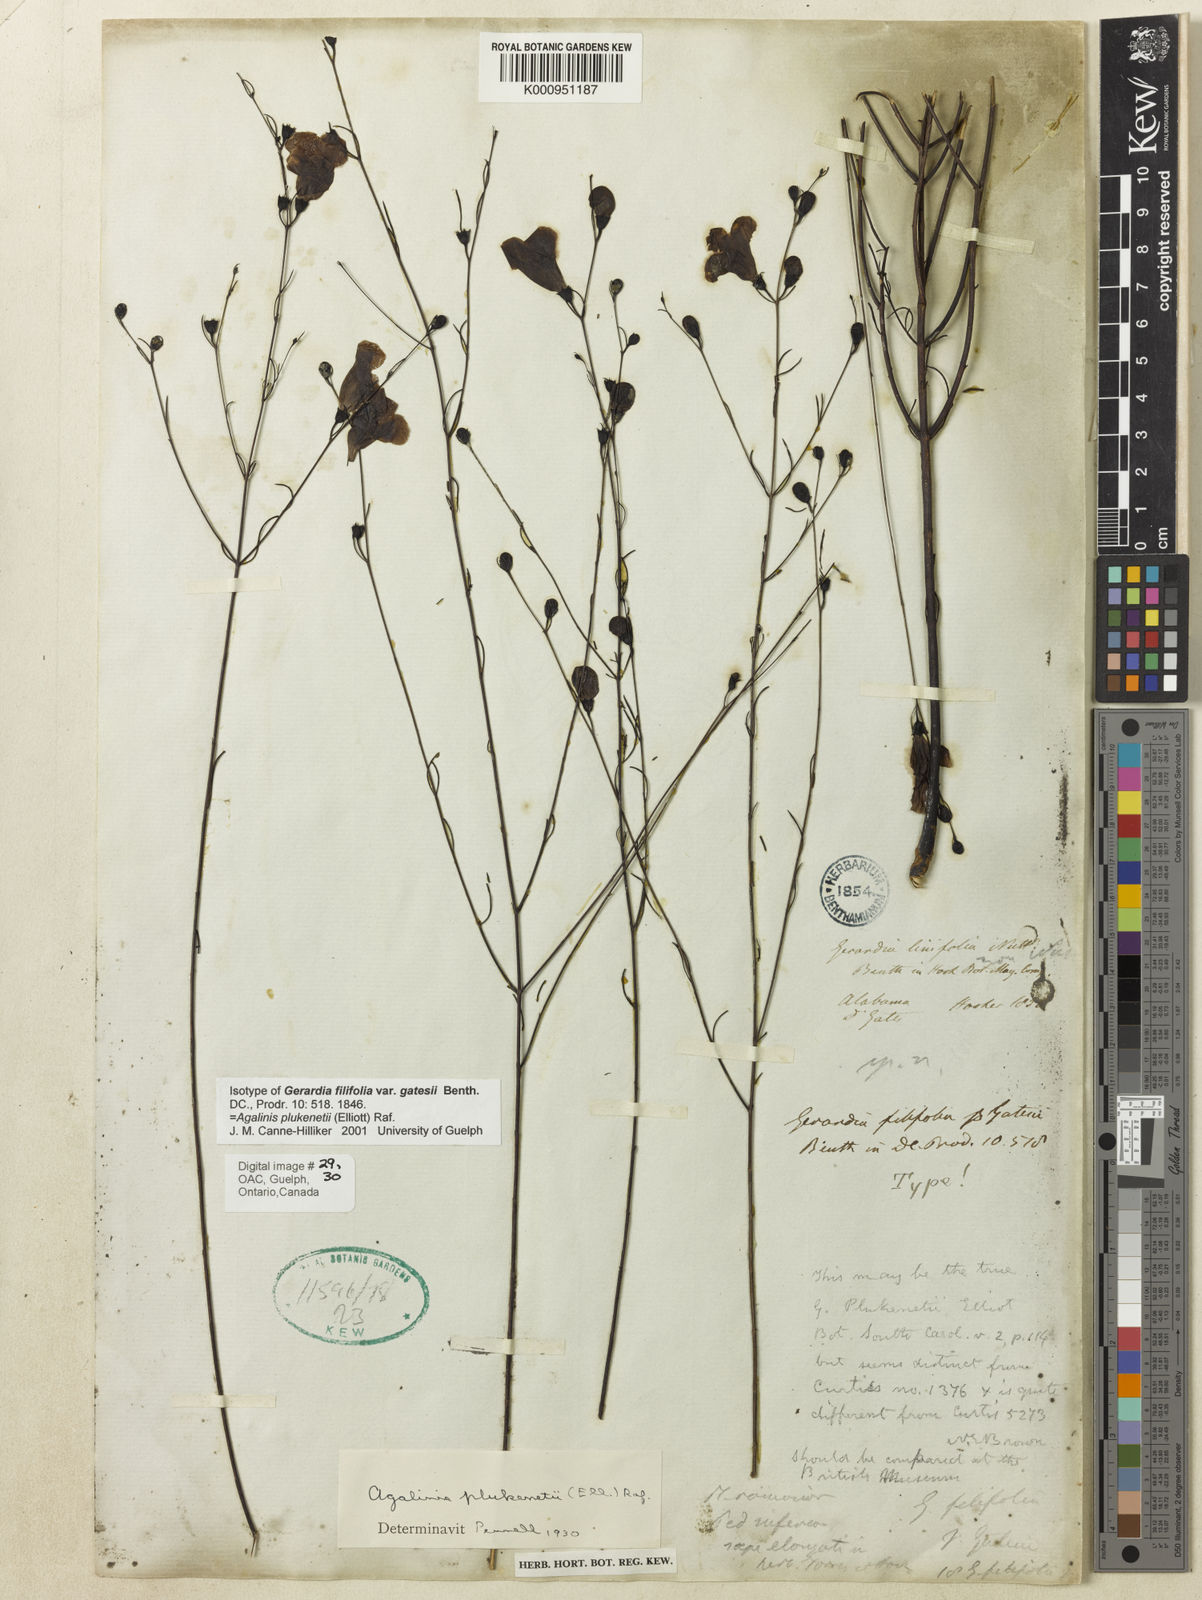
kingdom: Plantae
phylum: Tracheophyta
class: Magnoliopsida
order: Lamiales
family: Orobanchaceae
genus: Agalinis
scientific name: Agalinis plukenetii
